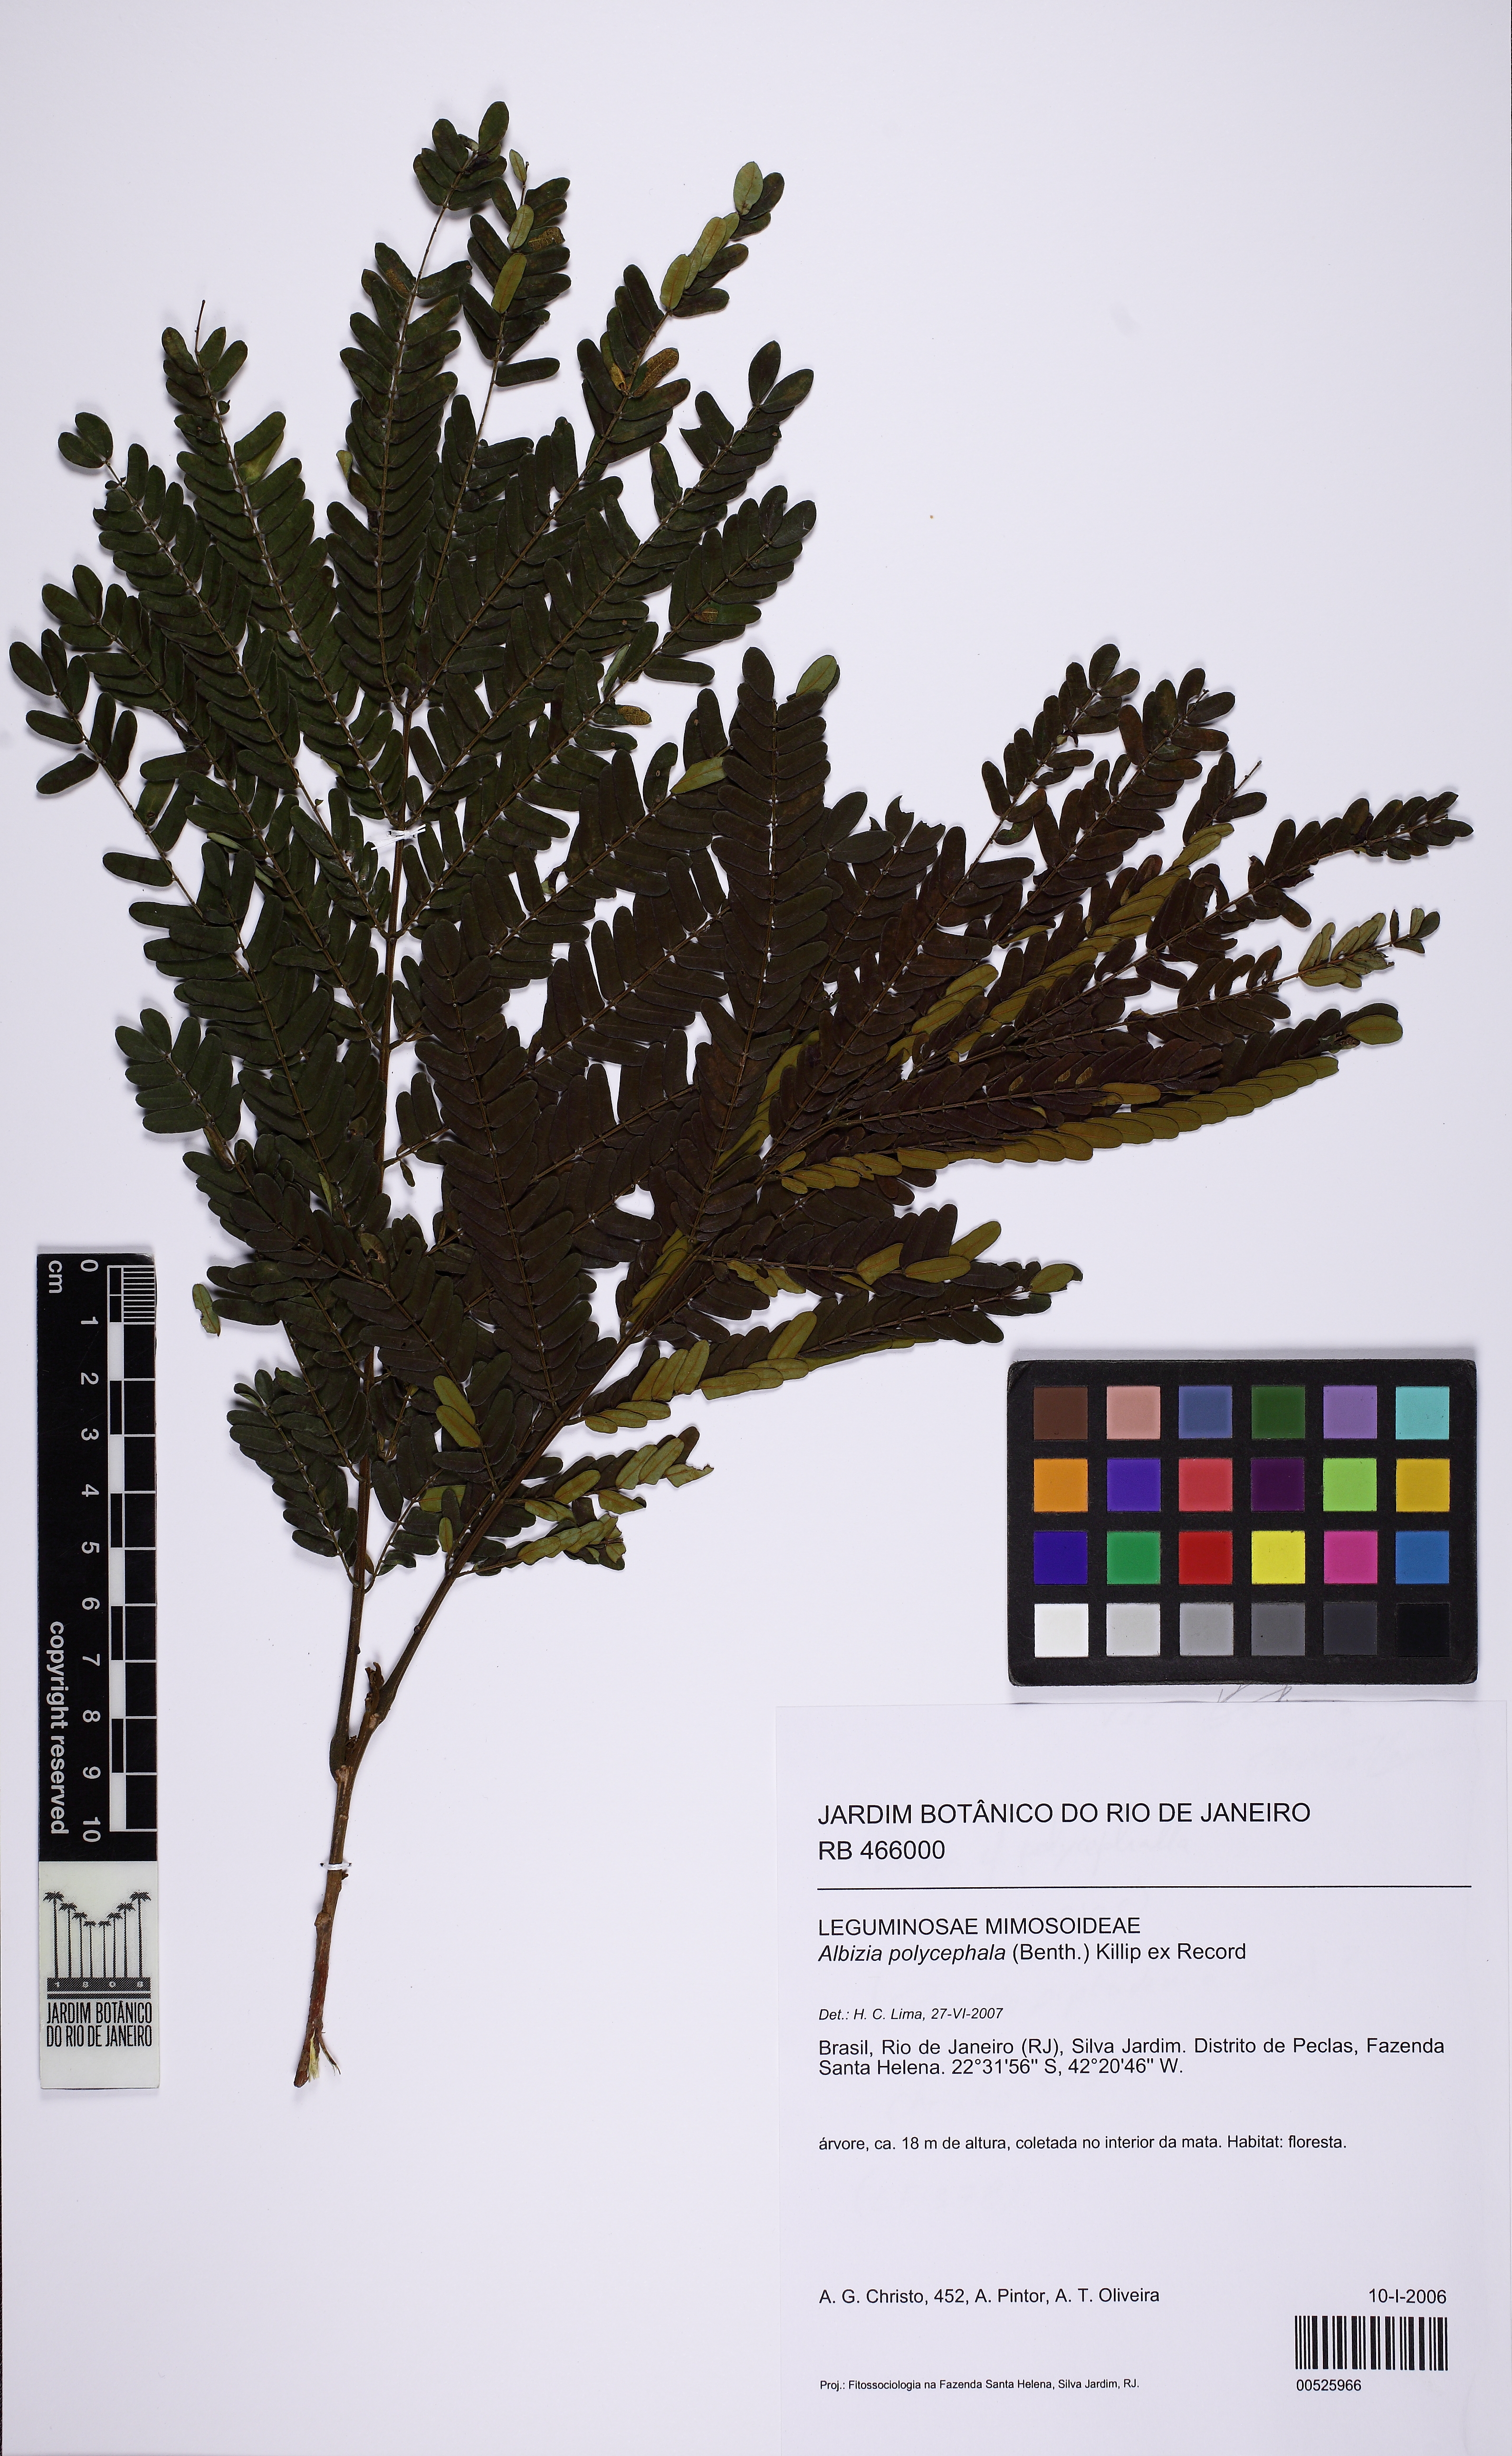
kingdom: Plantae
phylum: Tracheophyta
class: Magnoliopsida
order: Fabales
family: Fabaceae
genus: Albizia
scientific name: Albizia polycephala
